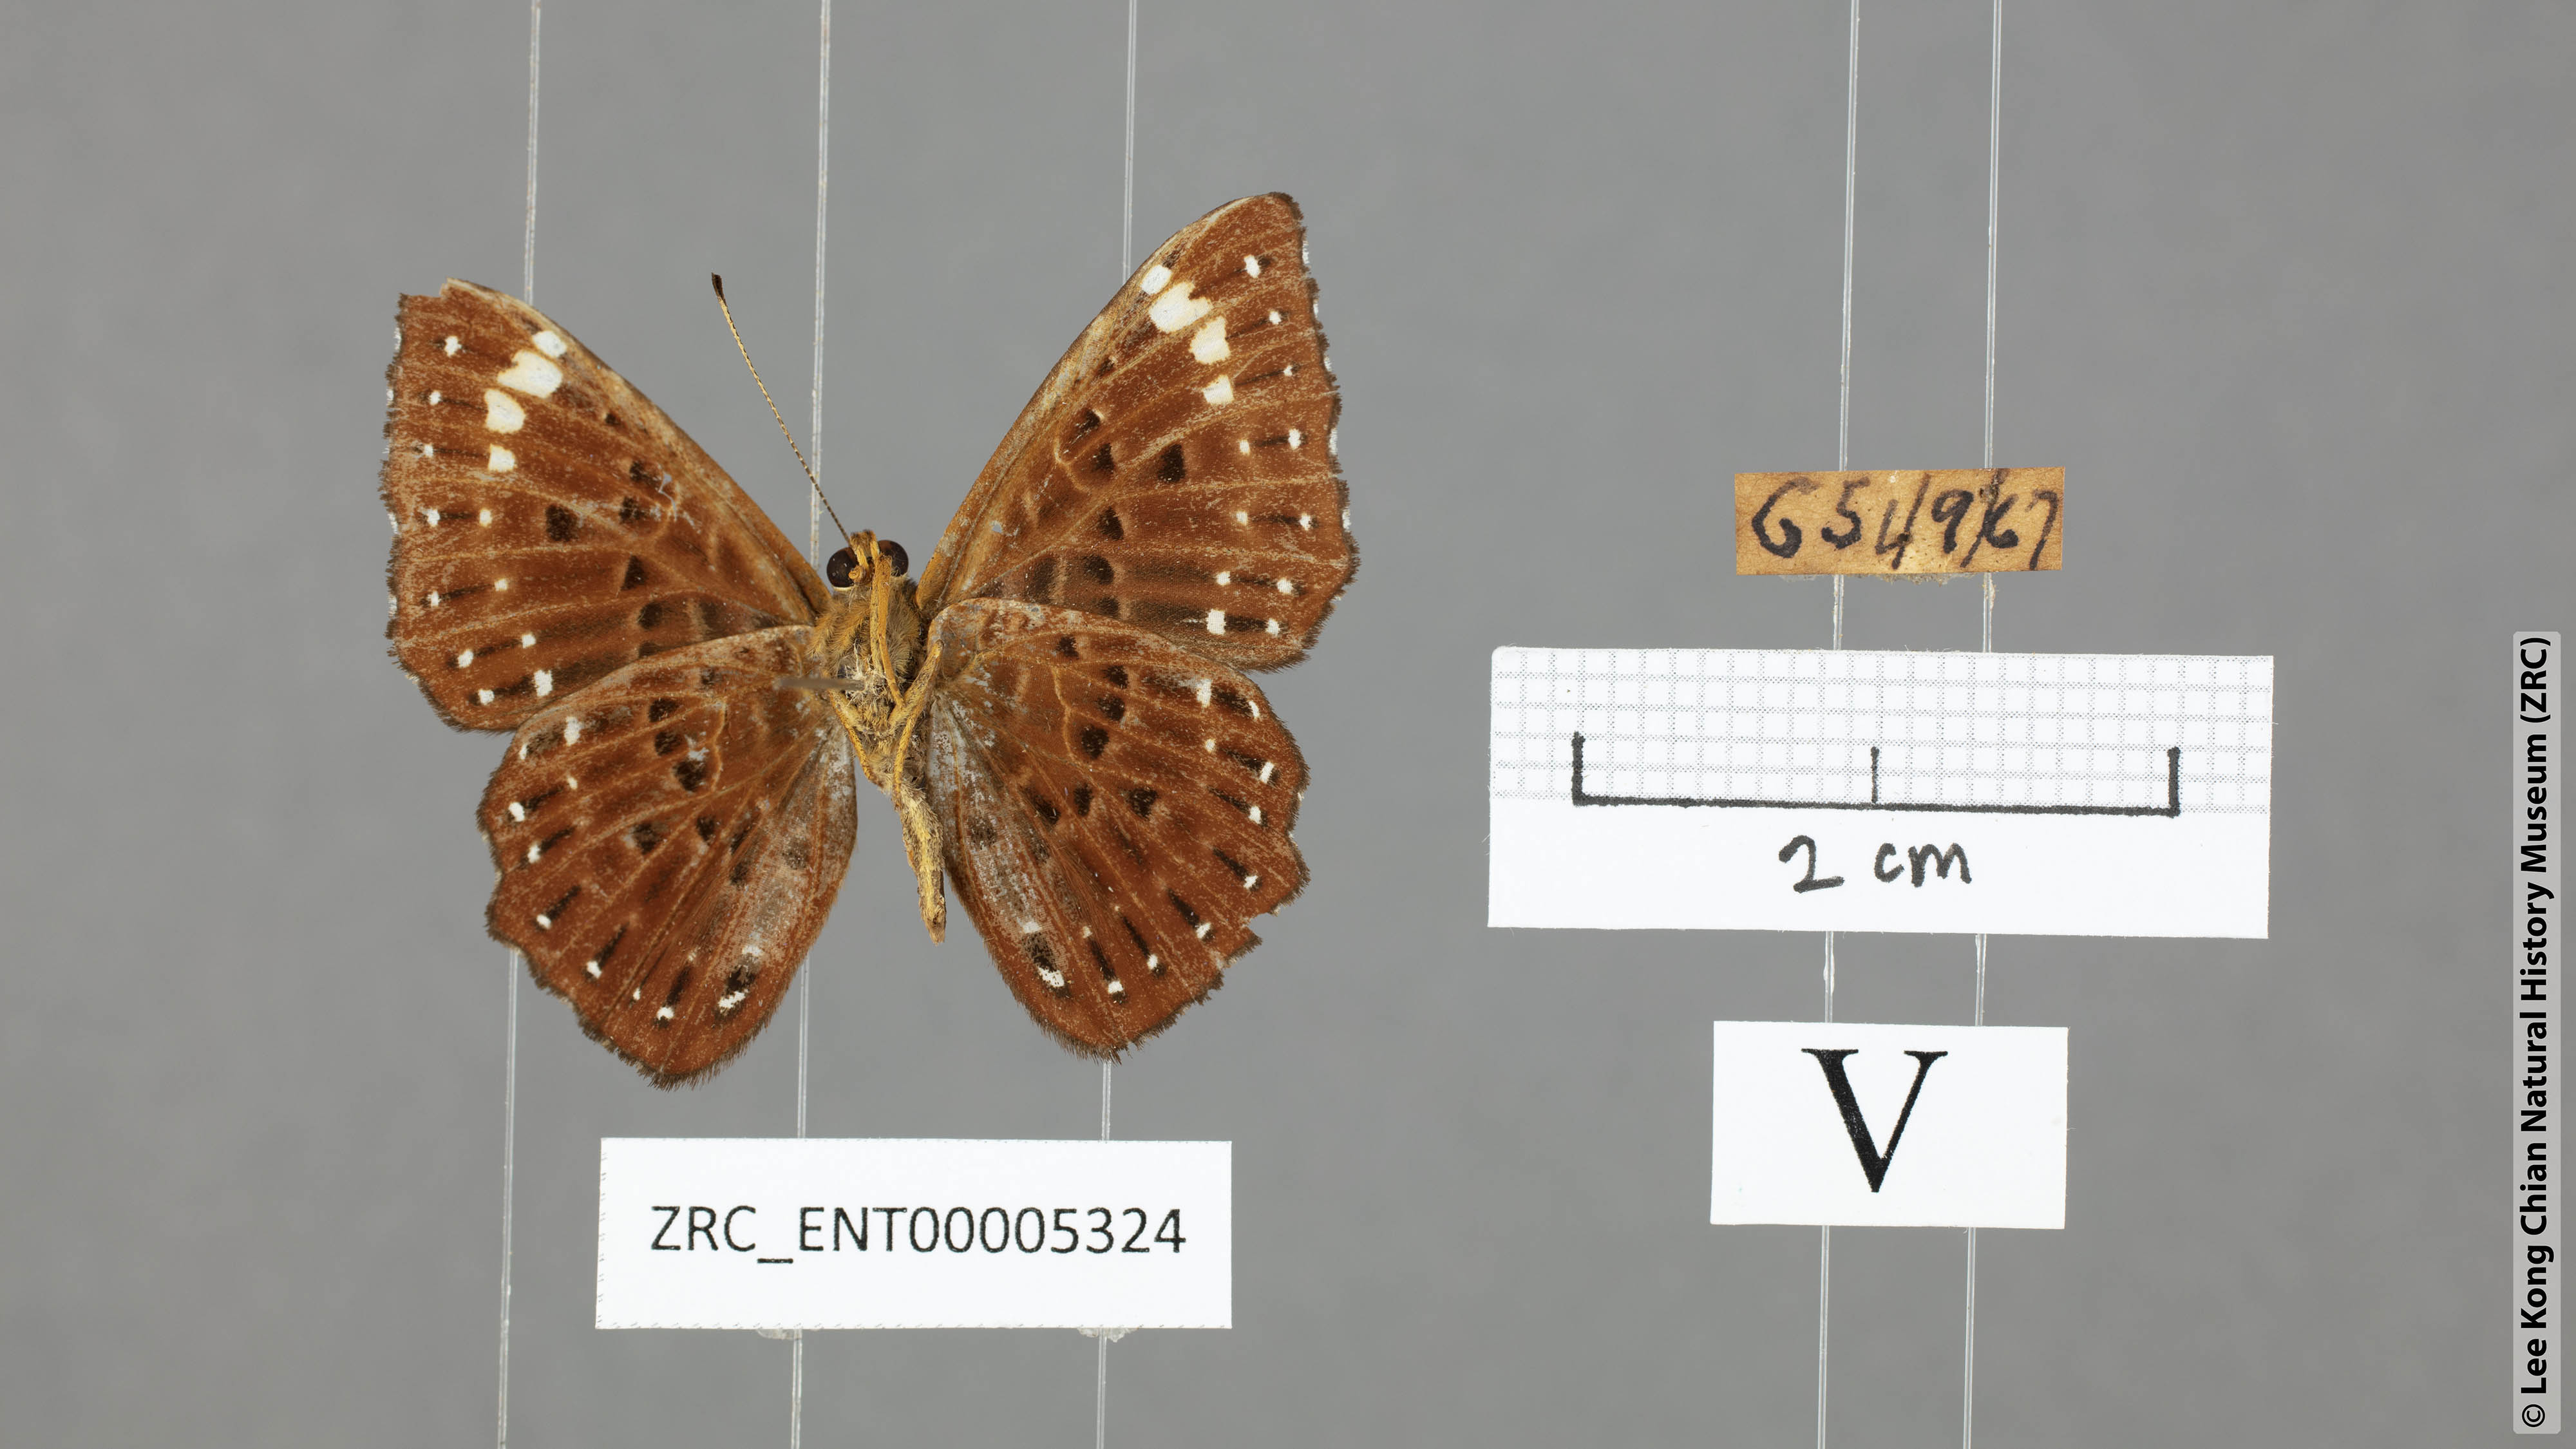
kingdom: Animalia
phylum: Arthropoda
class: Insecta
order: Lepidoptera
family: Riodinidae
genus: Zemeros
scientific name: Zemeros flegyas
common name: Punchinello
